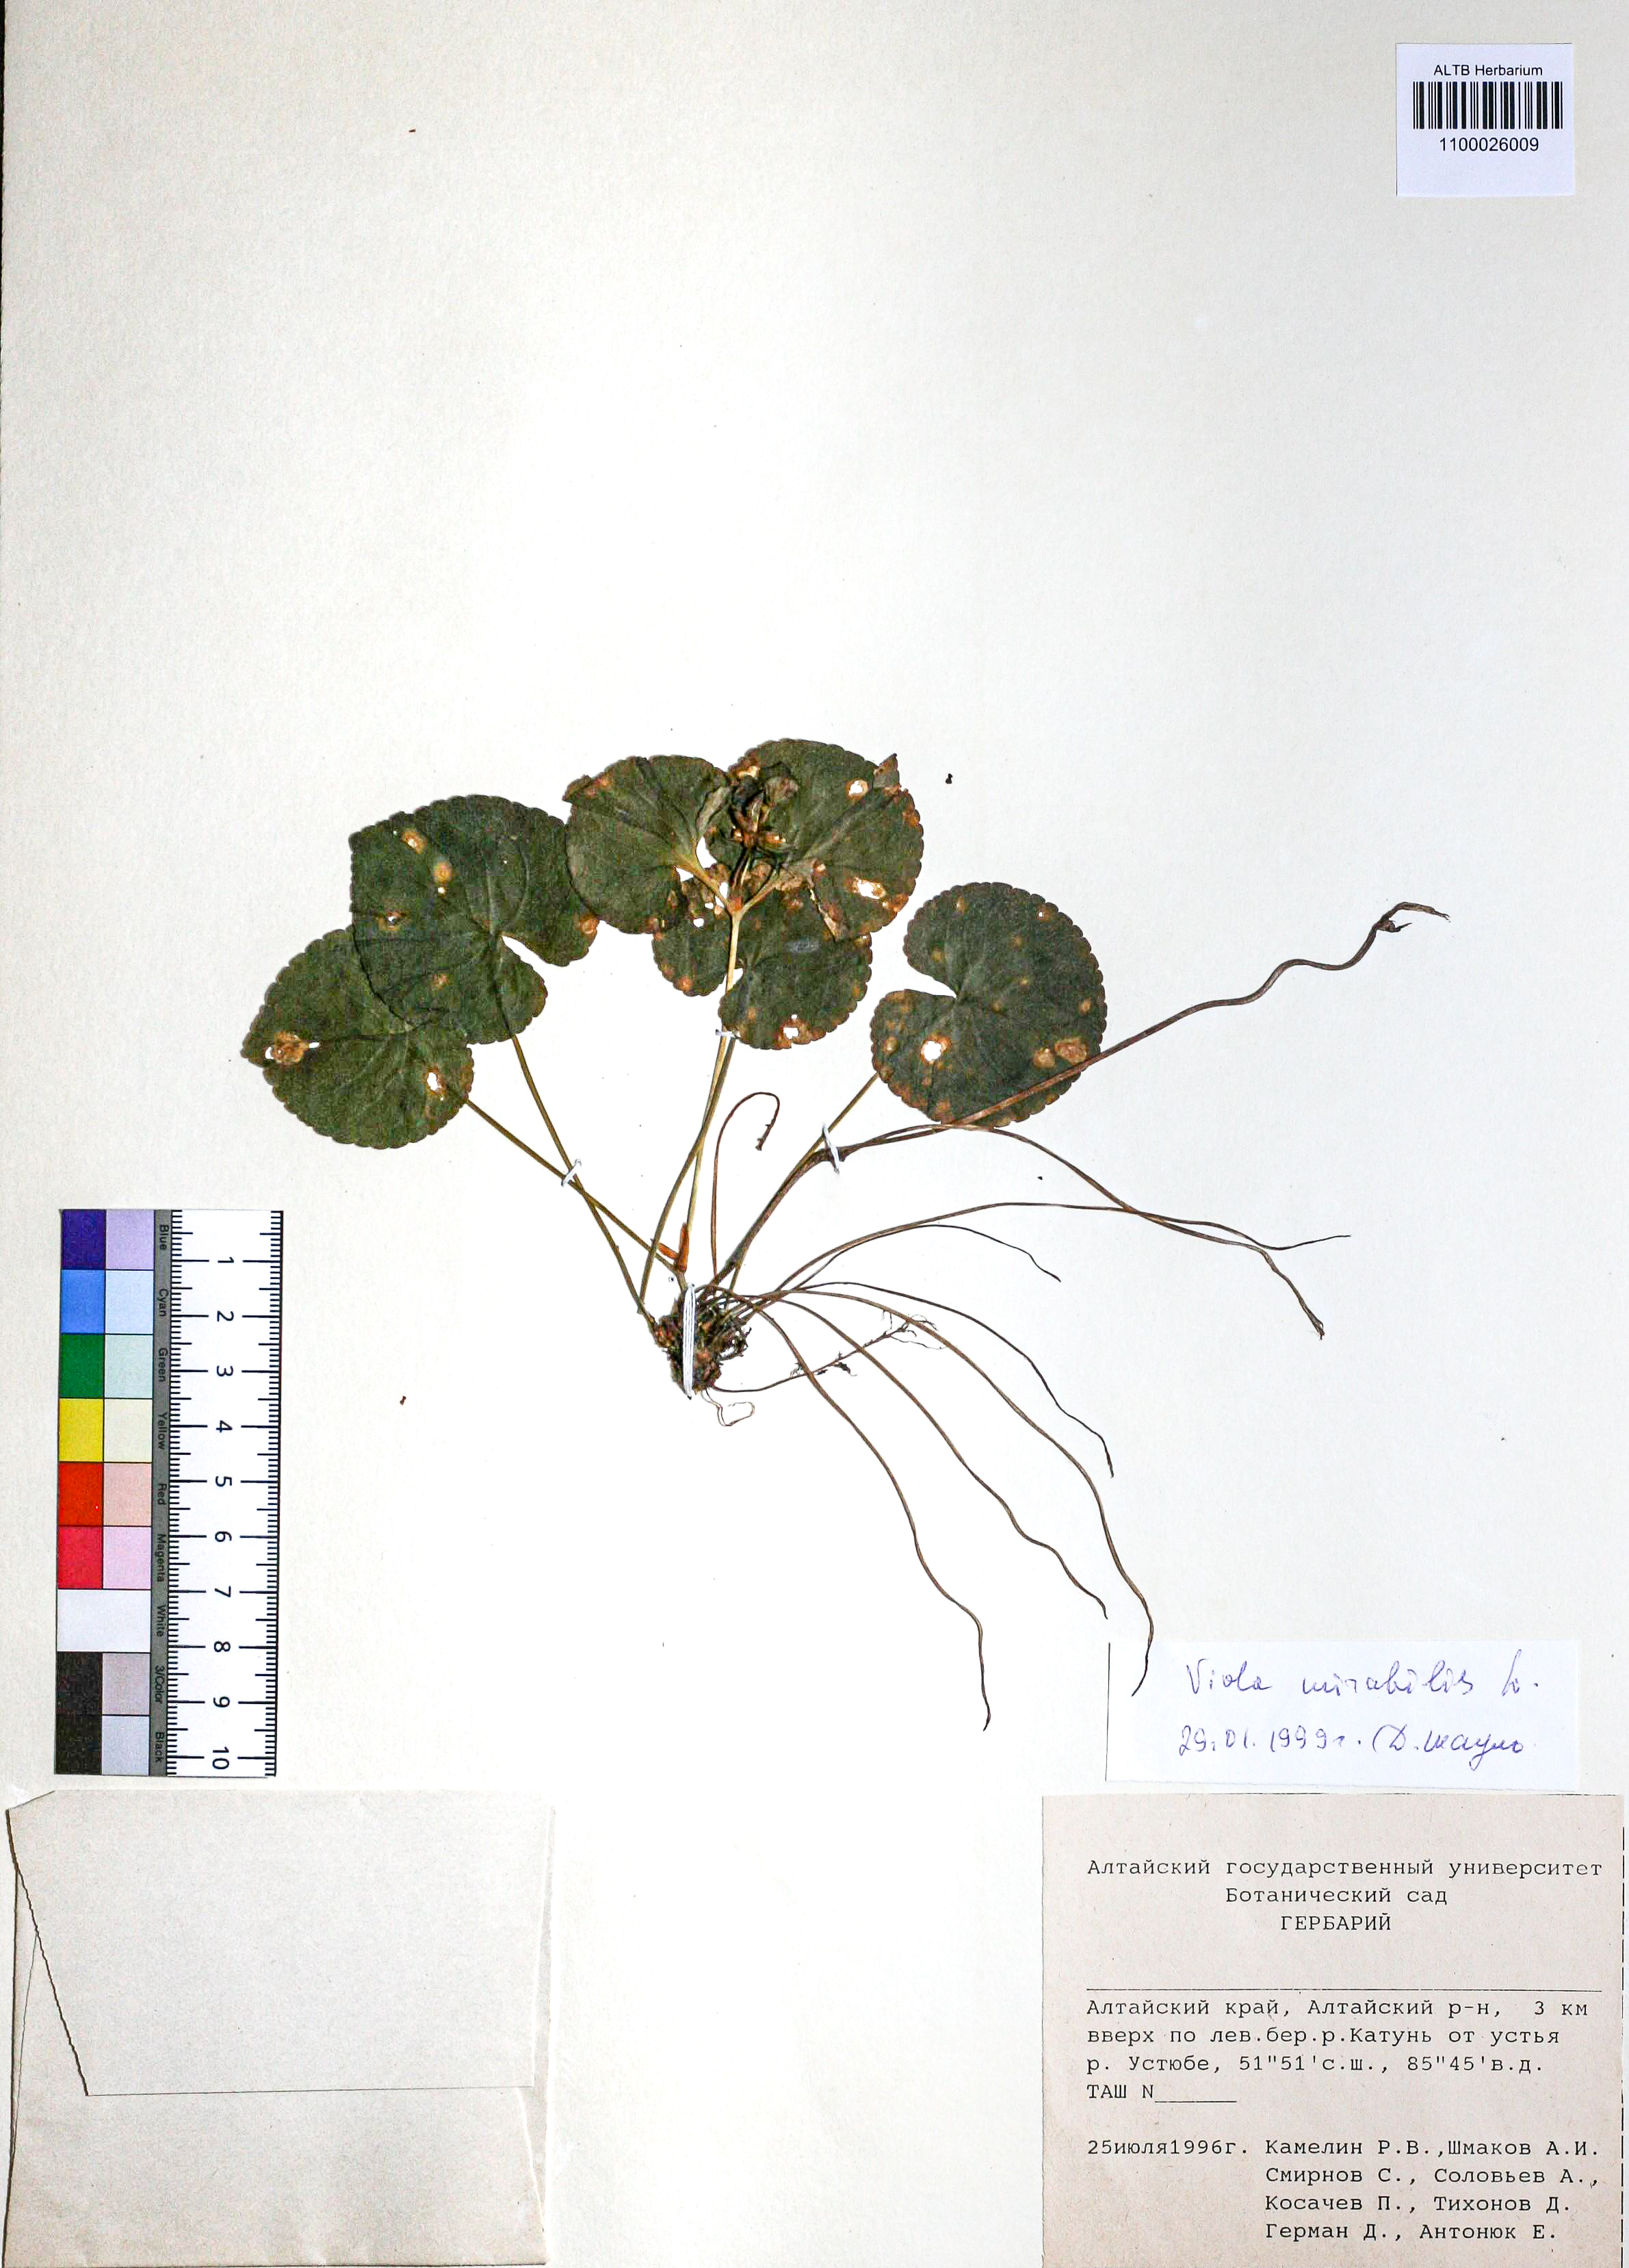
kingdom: Plantae
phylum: Tracheophyta
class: Magnoliopsida
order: Malpighiales
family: Violaceae
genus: Viola
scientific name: Viola mirabilis
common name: Wonder violet
